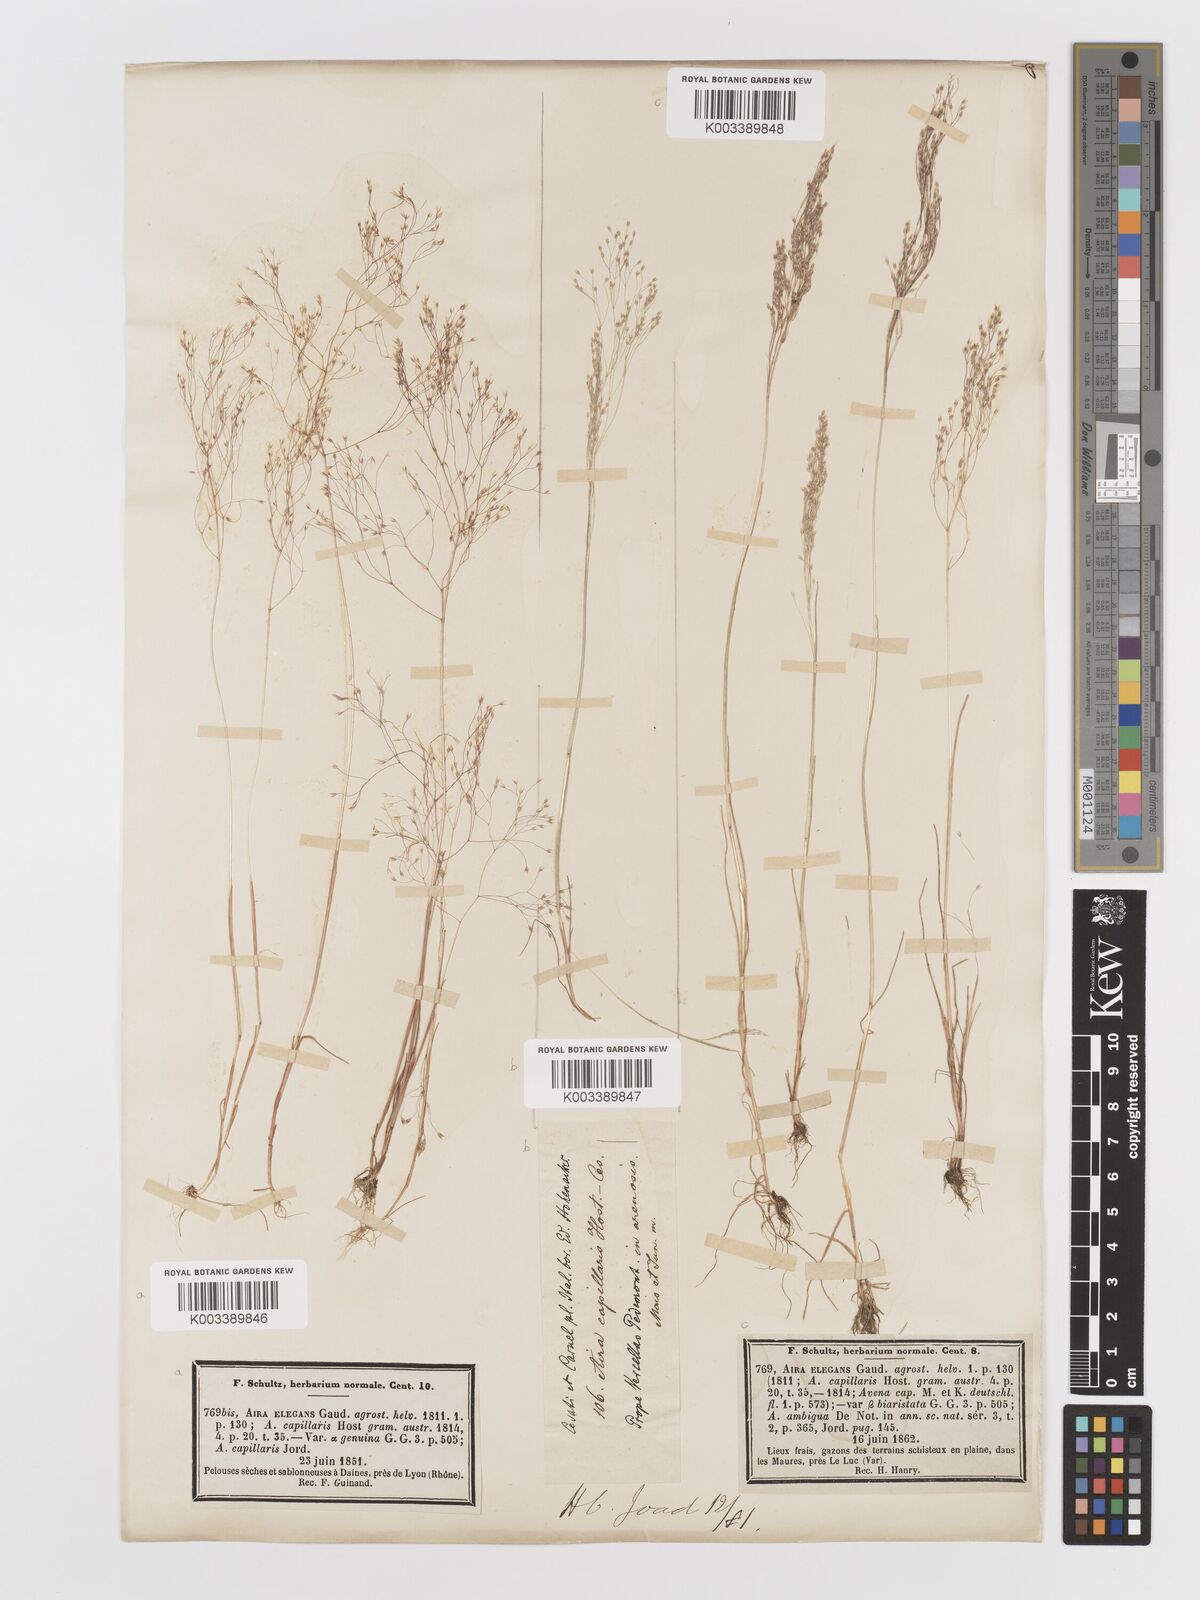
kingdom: Plantae
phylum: Tracheophyta
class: Liliopsida
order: Poales
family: Poaceae
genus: Aira
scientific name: Aira elegans
